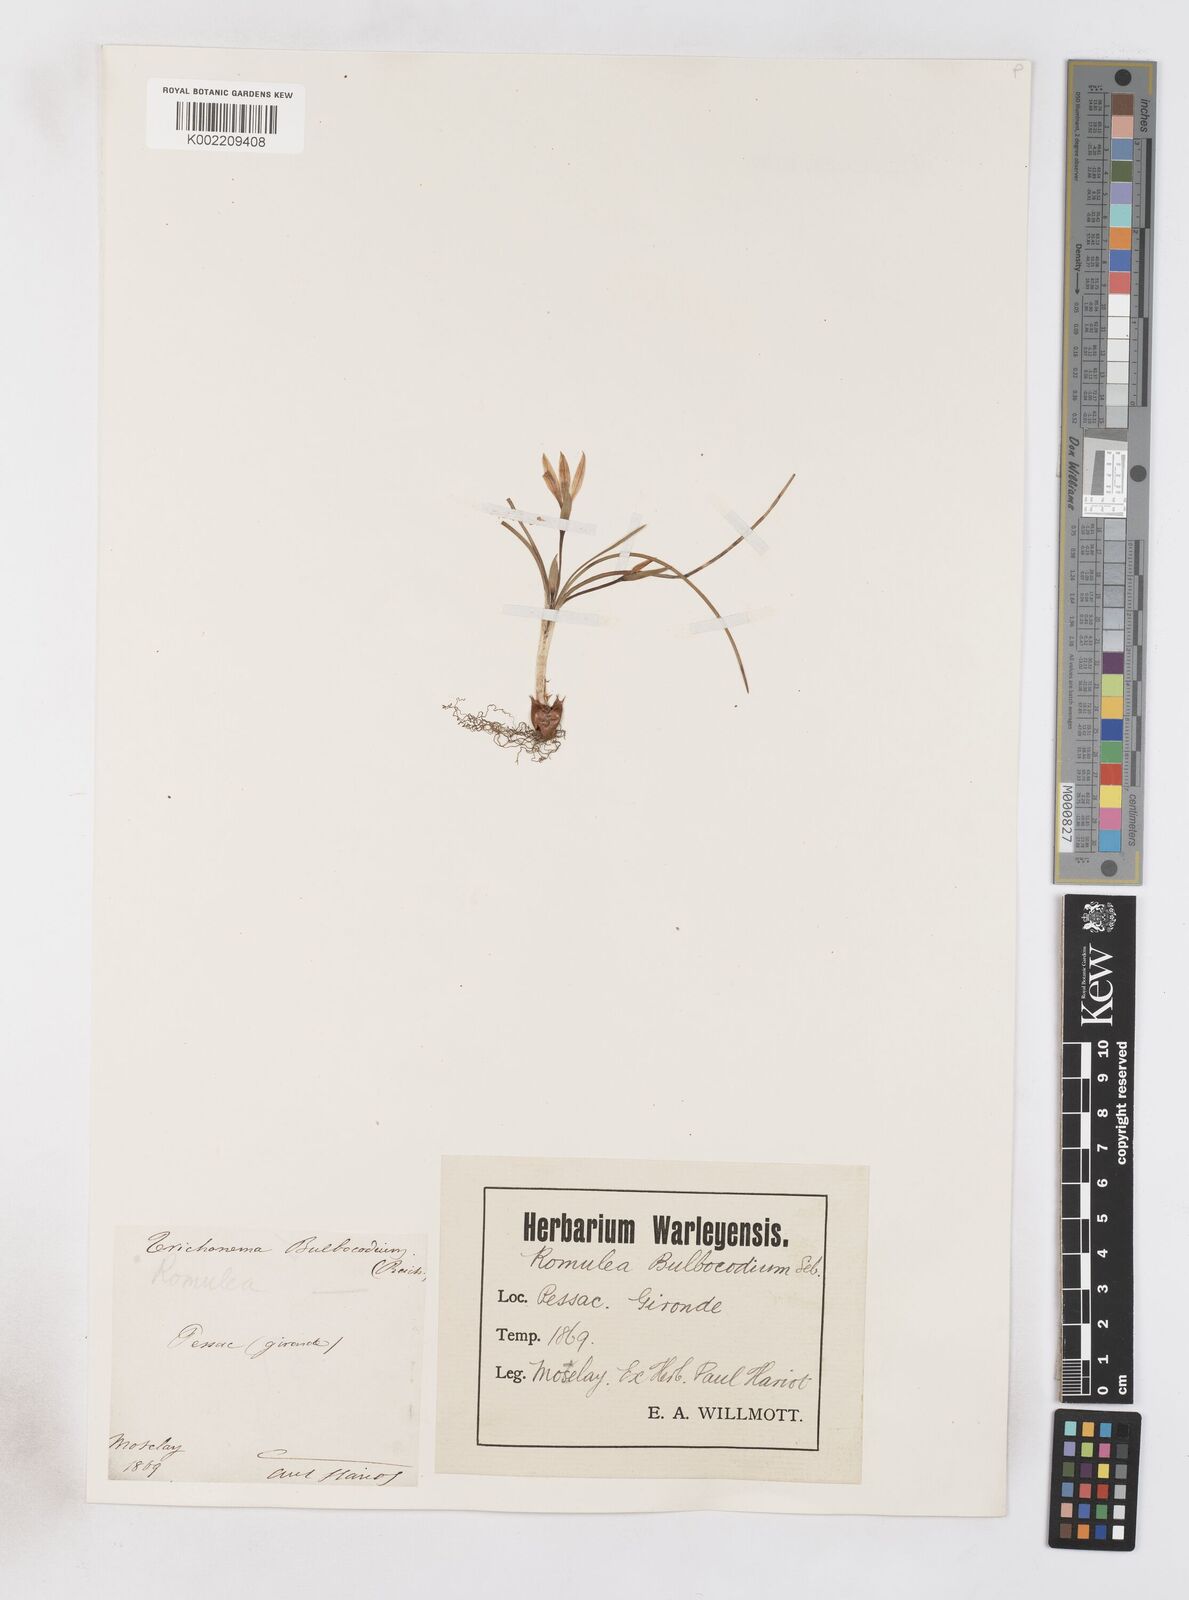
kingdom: Plantae
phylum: Tracheophyta
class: Liliopsida
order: Asparagales
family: Iridaceae
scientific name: Iridaceae
